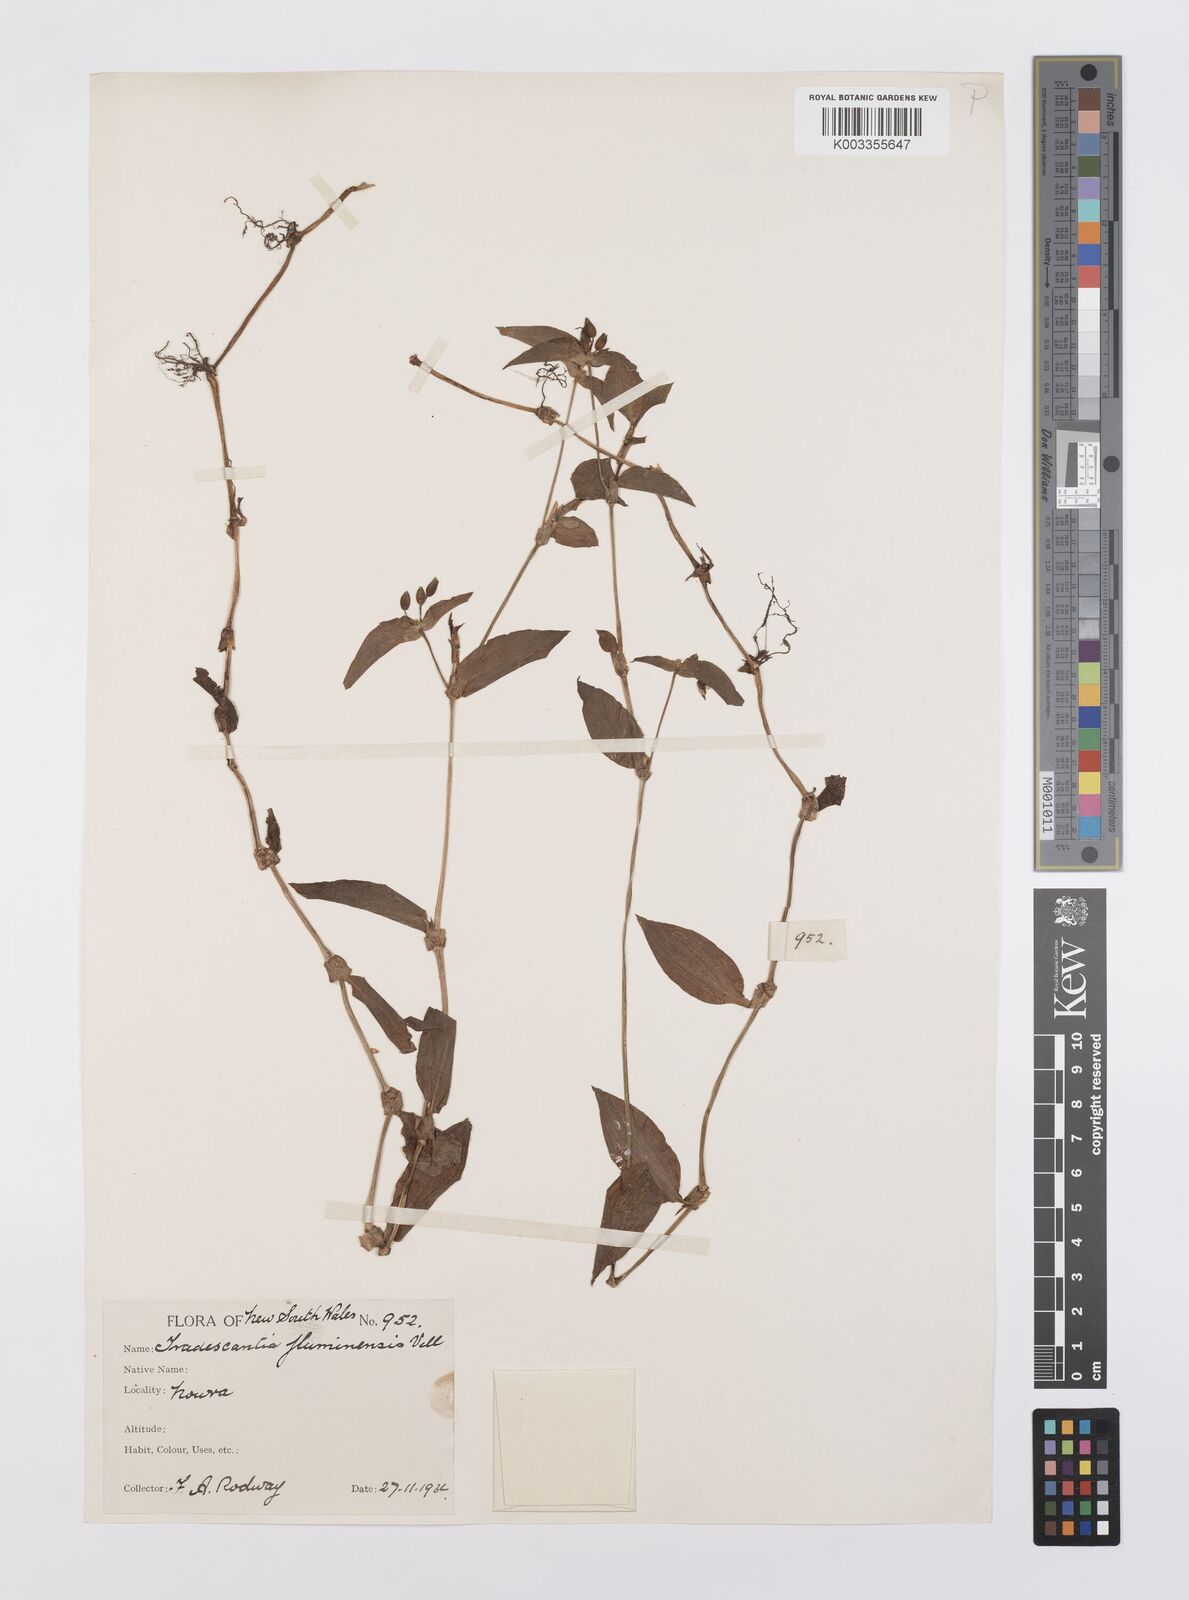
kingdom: Plantae
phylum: Tracheophyta
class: Liliopsida
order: Commelinales
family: Commelinaceae
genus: Tradescantia
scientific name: Tradescantia fluminensis
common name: Wandering-jew
